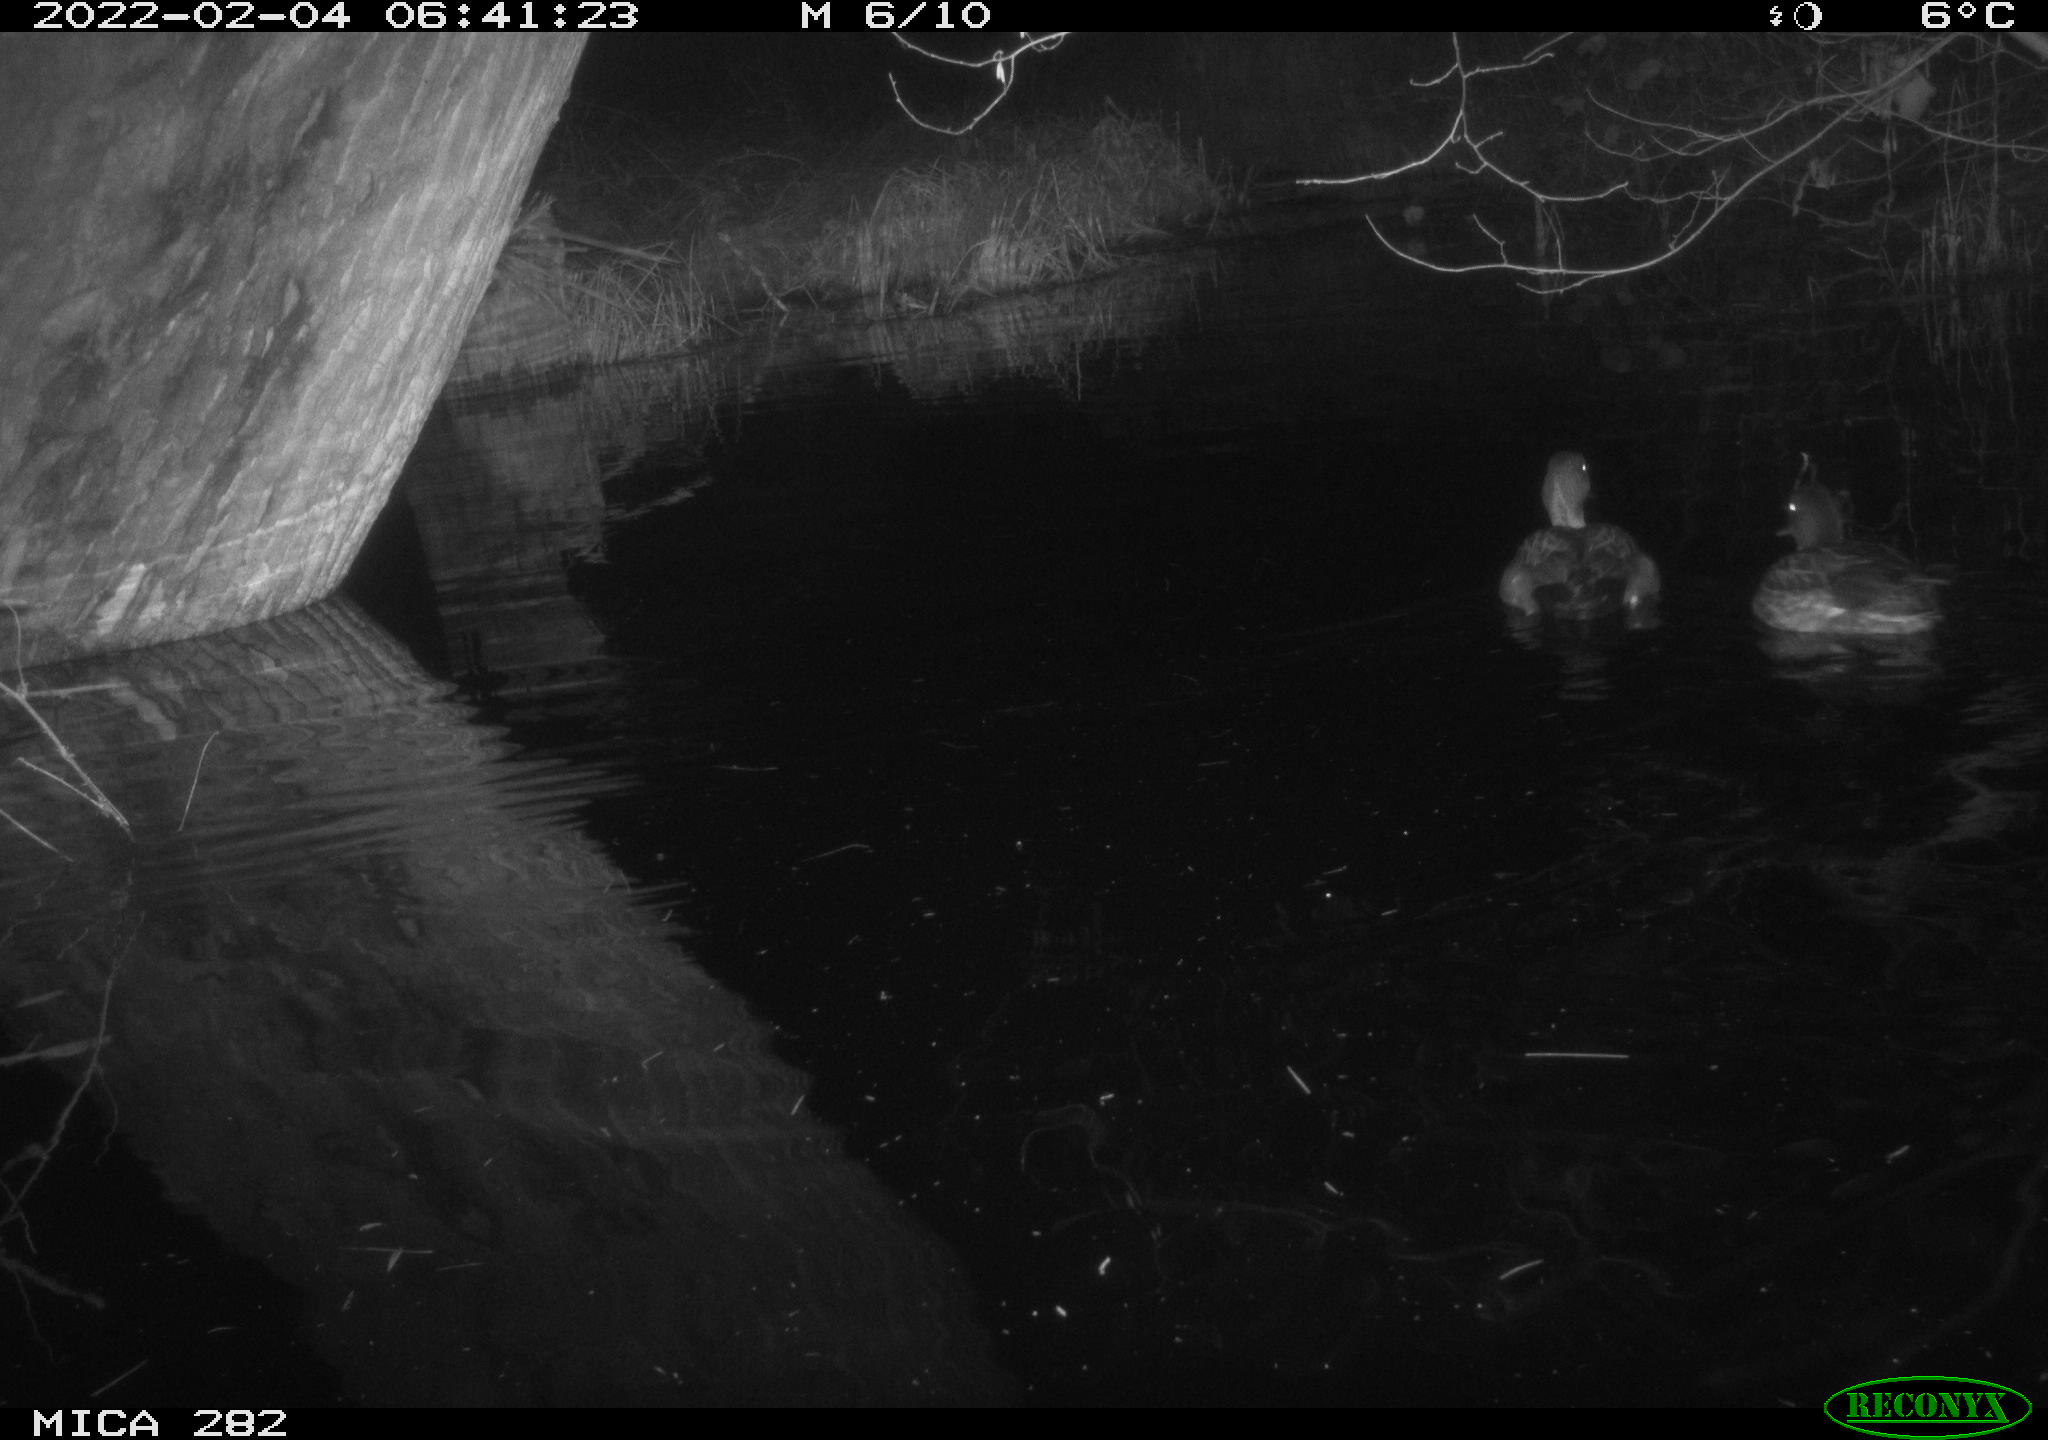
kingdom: Animalia
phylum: Chordata
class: Aves
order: Anseriformes
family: Anatidae
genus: Mareca
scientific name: Mareca strepera
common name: Gadwall
